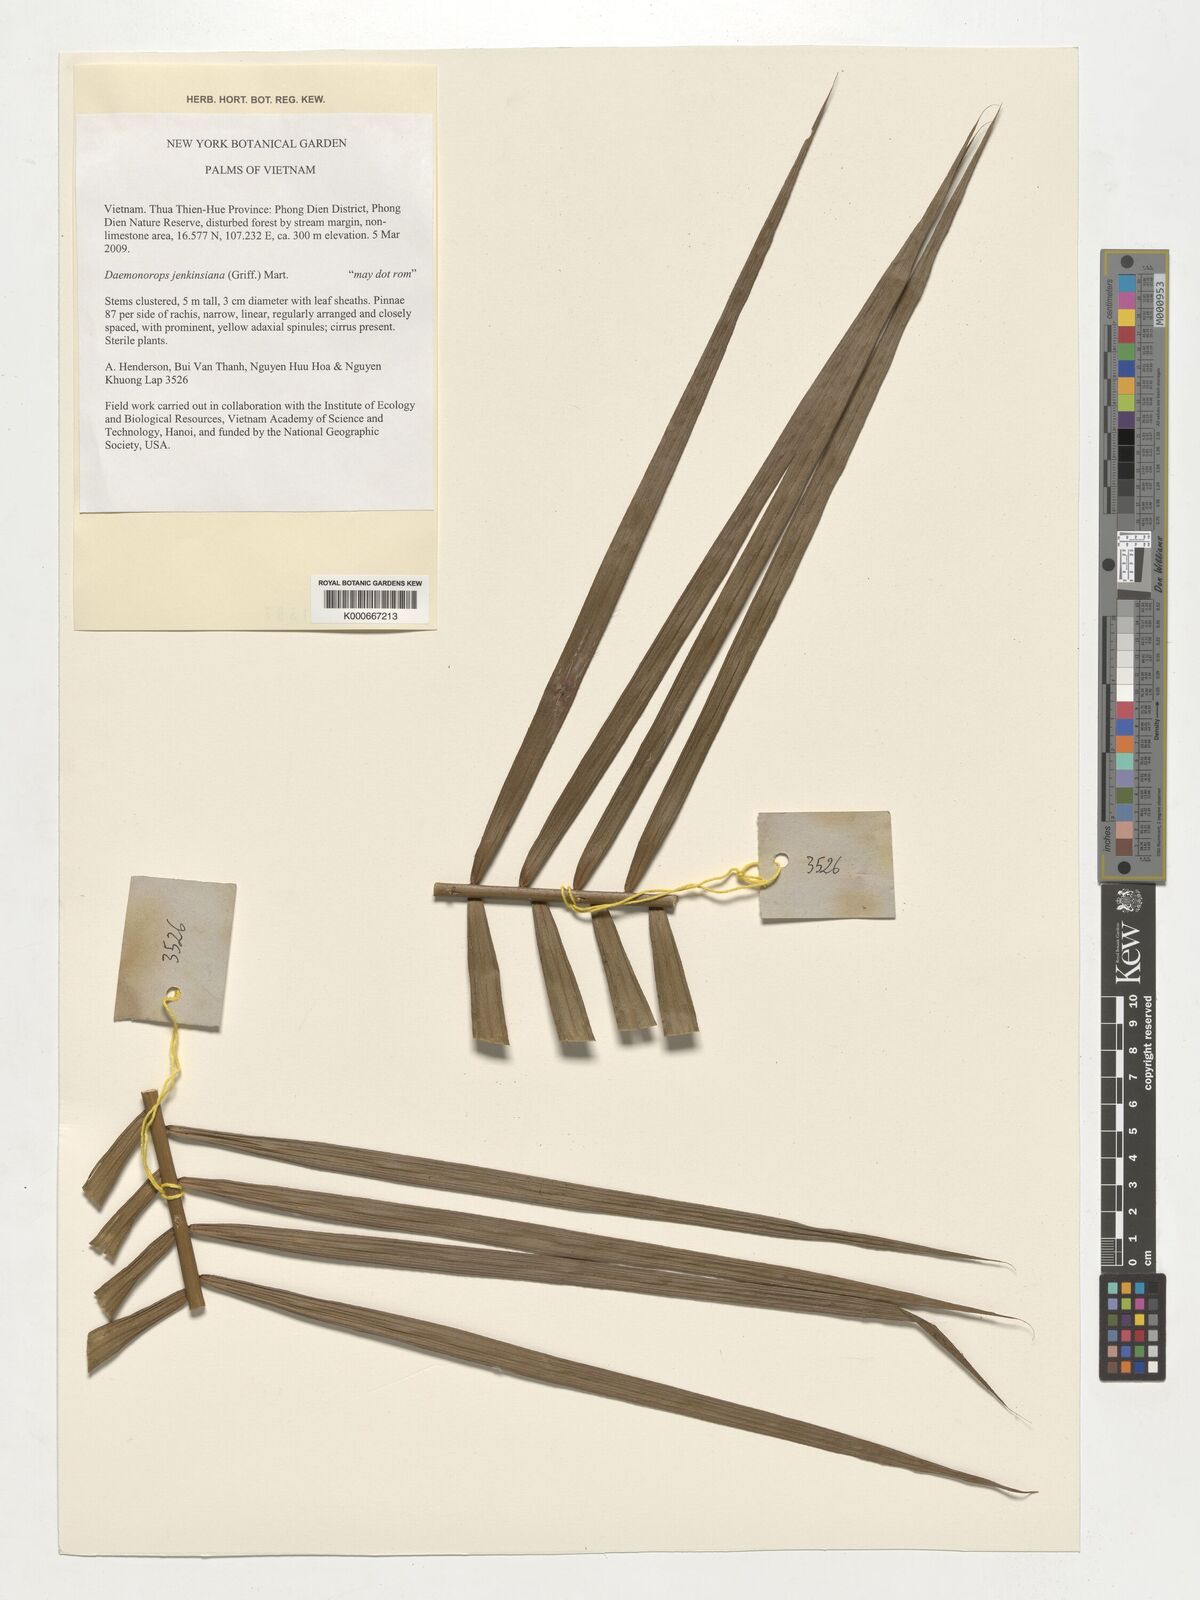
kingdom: Plantae
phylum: Tracheophyta
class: Liliopsida
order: Arecales
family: Arecaceae
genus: Calamus
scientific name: Calamus melanochaetes
